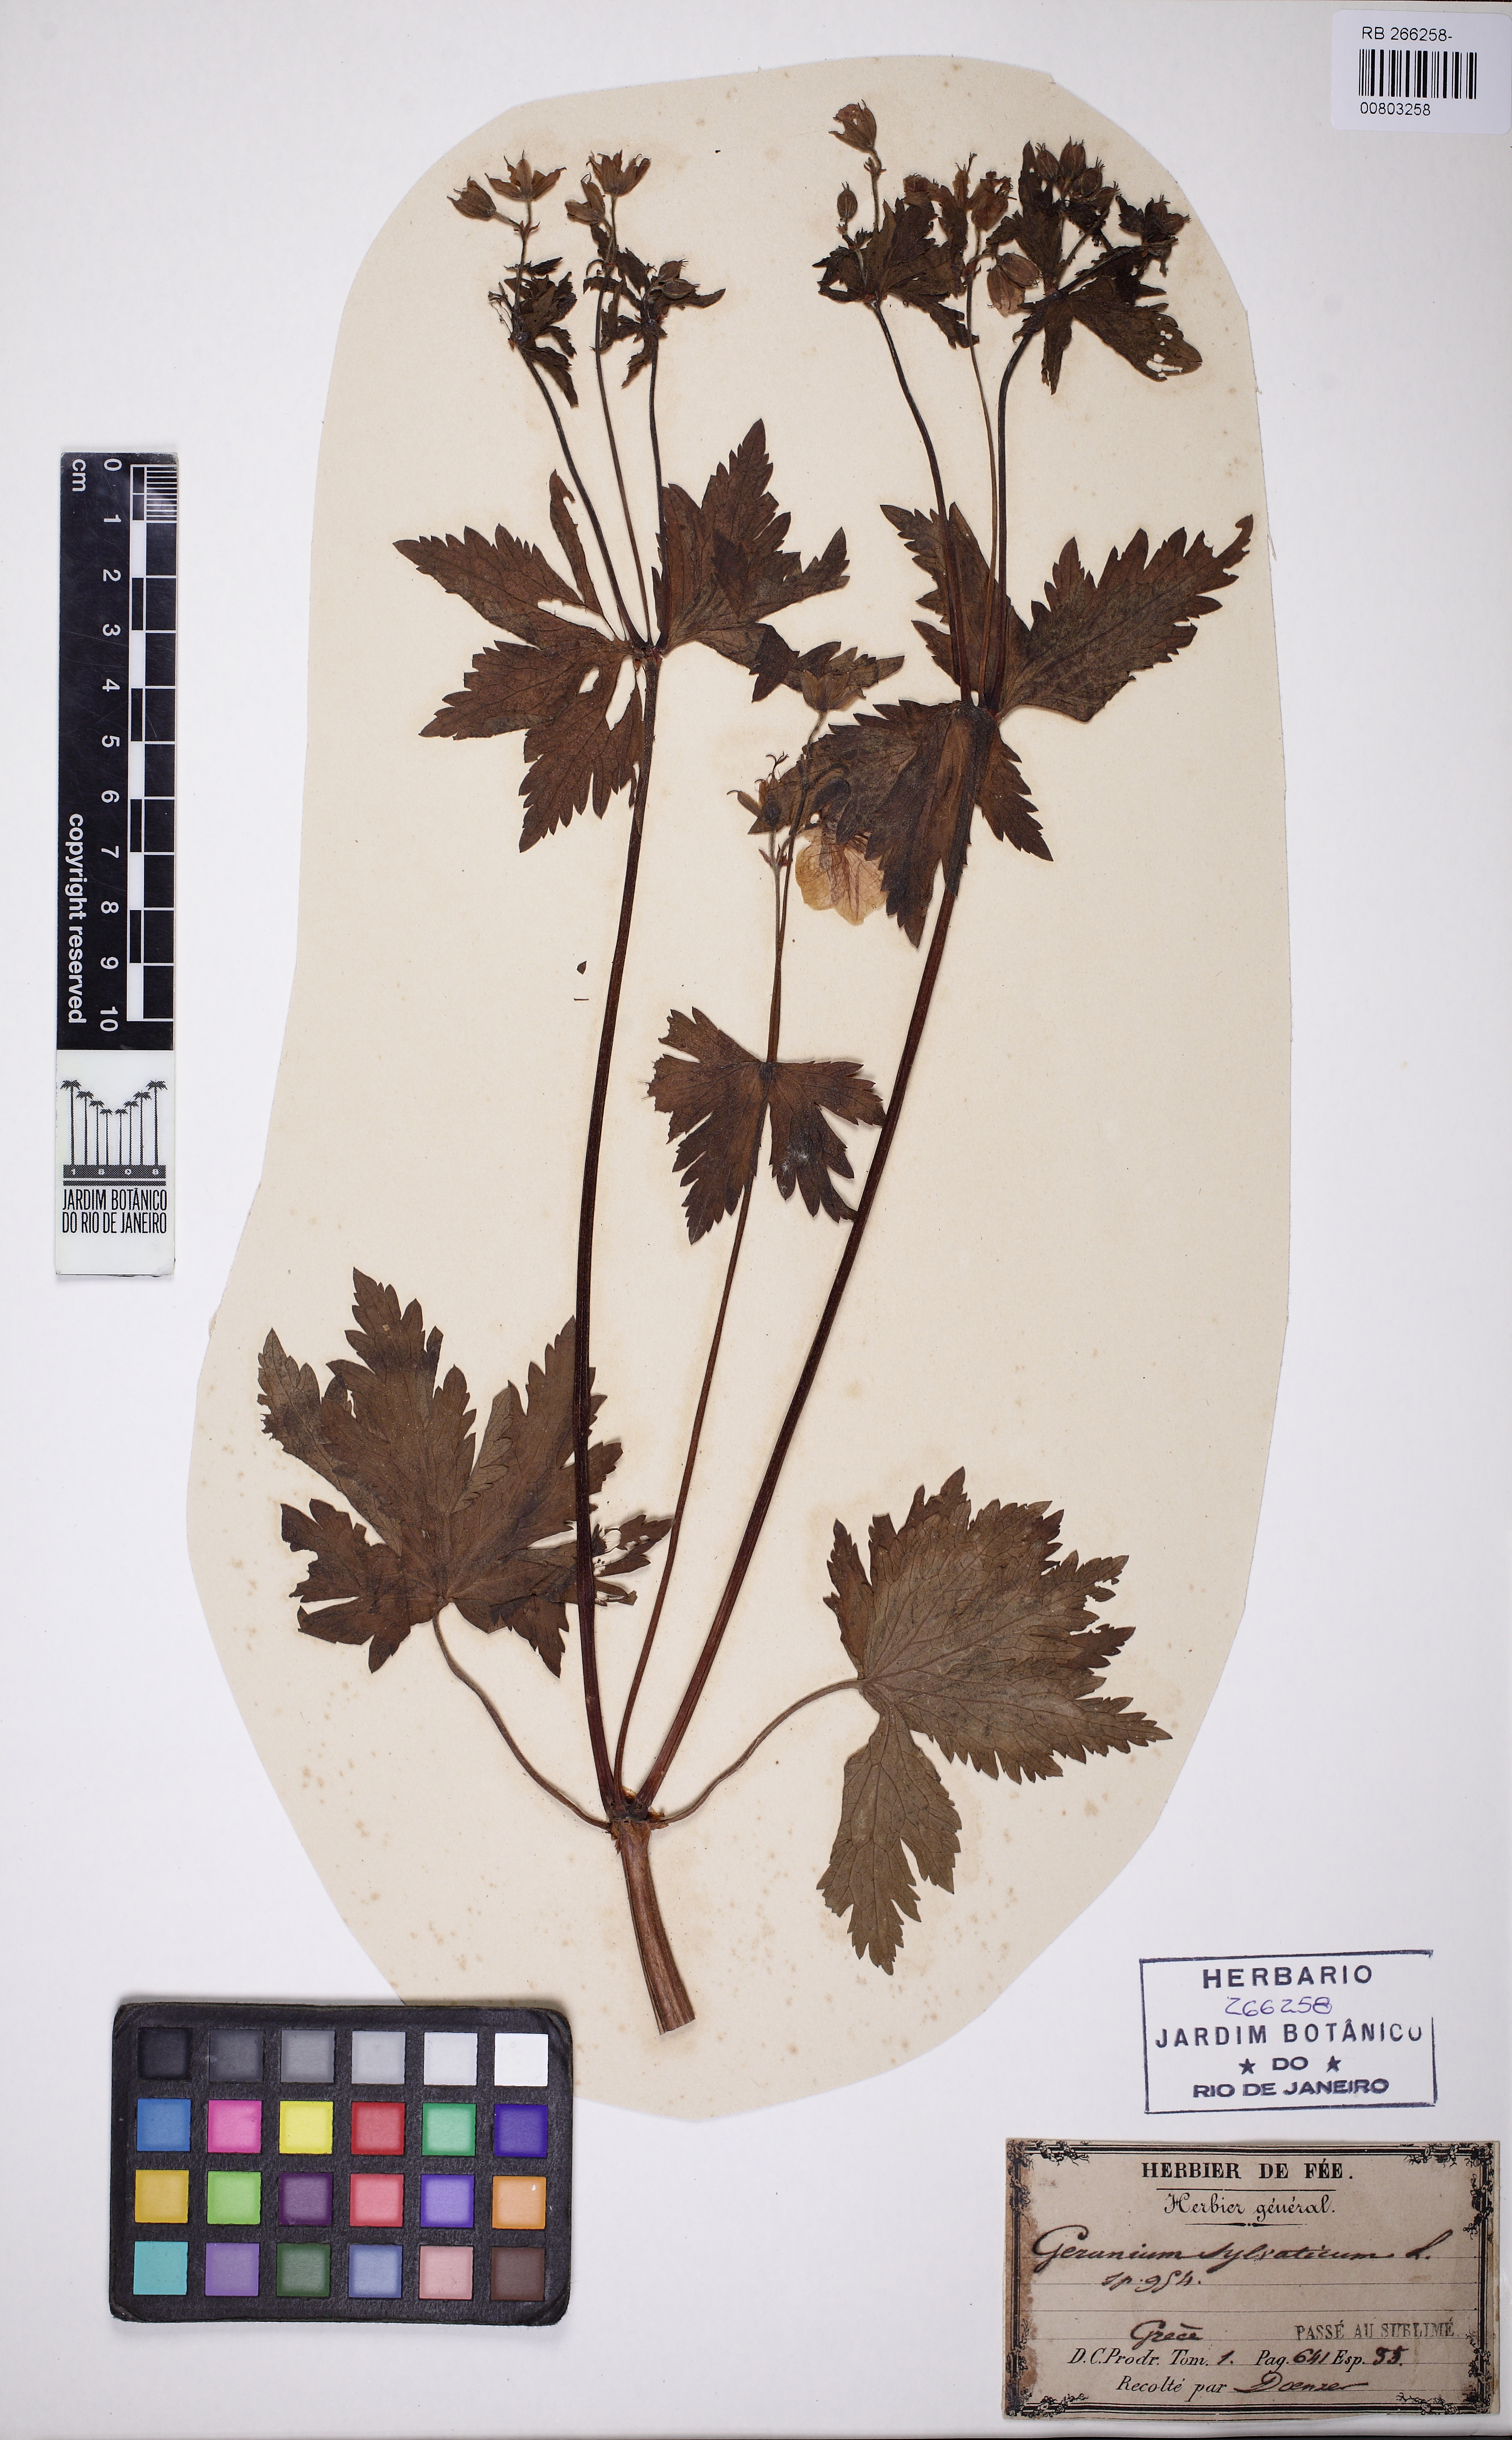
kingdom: Plantae
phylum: Tracheophyta
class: Magnoliopsida
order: Geraniales
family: Geraniaceae
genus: Geranium
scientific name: Geranium sylvaticum
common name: Wood crane's-bill
